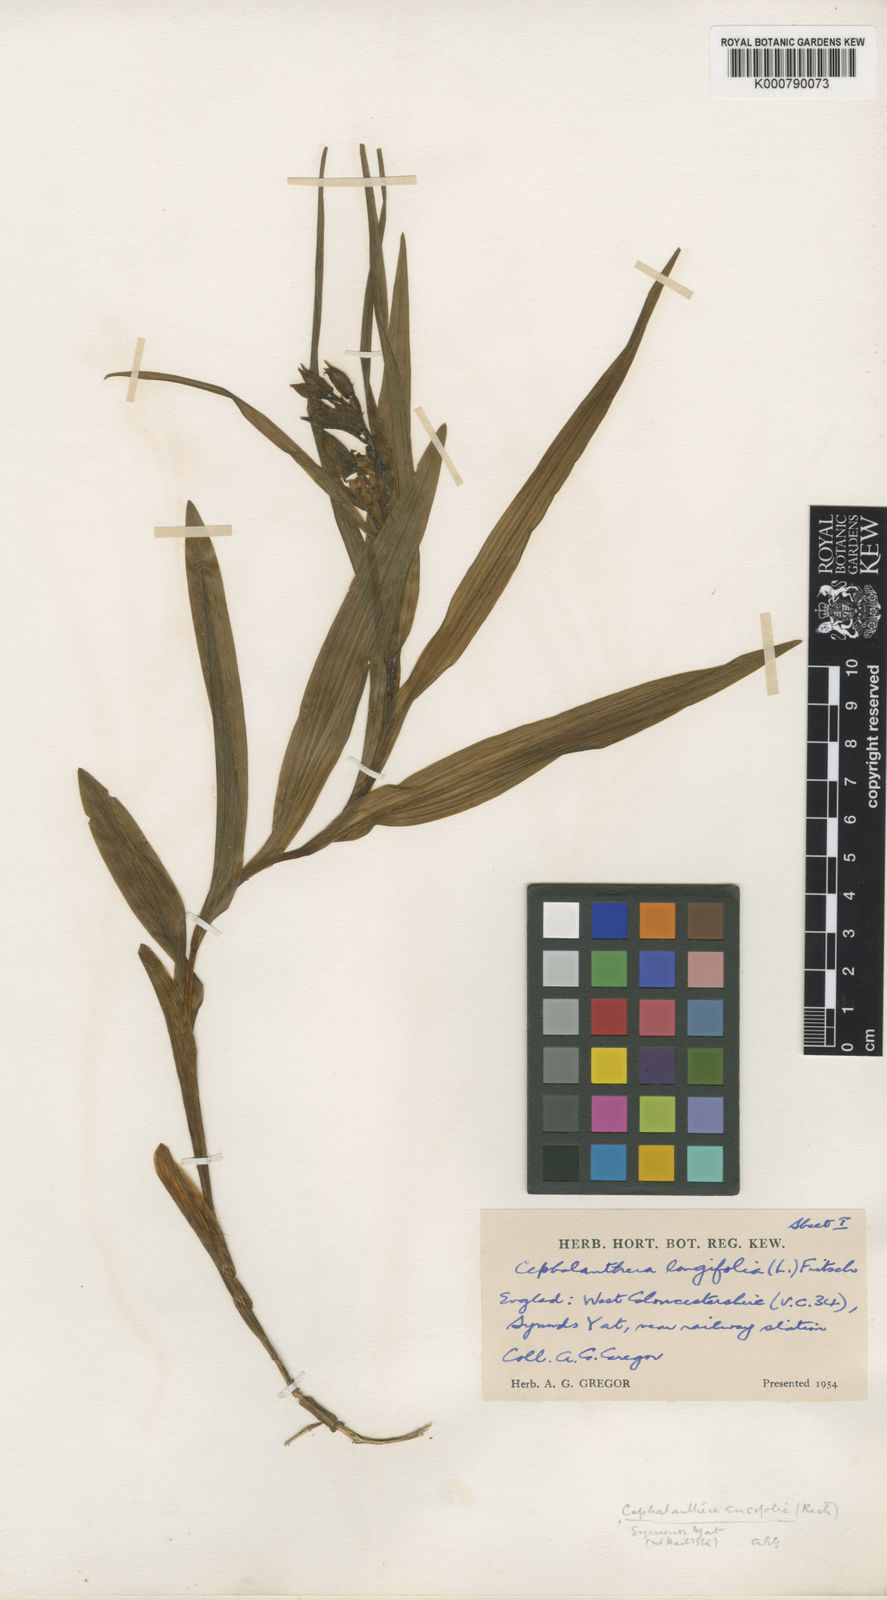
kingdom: Plantae
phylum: Tracheophyta
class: Liliopsida
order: Asparagales
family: Orchidaceae
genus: Cephalanthera
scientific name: Cephalanthera longifolia
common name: Narrow-leaved helleborine
